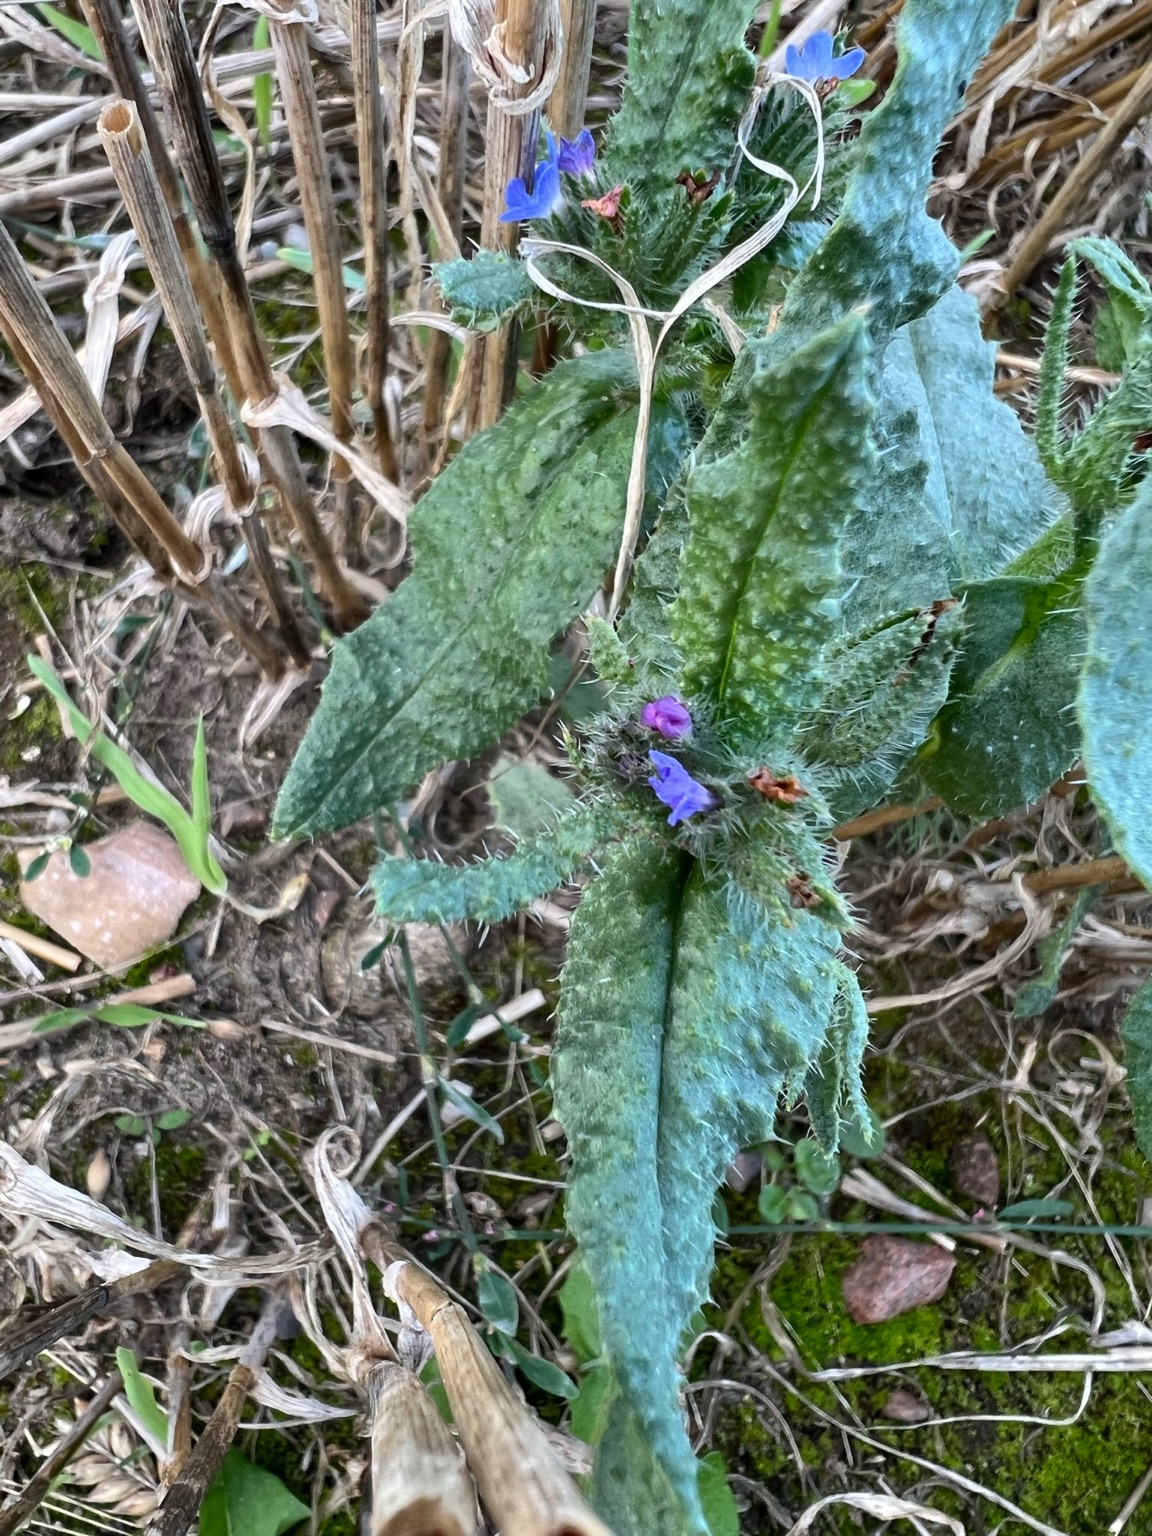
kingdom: Plantae
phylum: Tracheophyta
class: Magnoliopsida
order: Boraginales
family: Boraginaceae
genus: Lycopsis
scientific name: Lycopsis arvensis
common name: Krumhals
